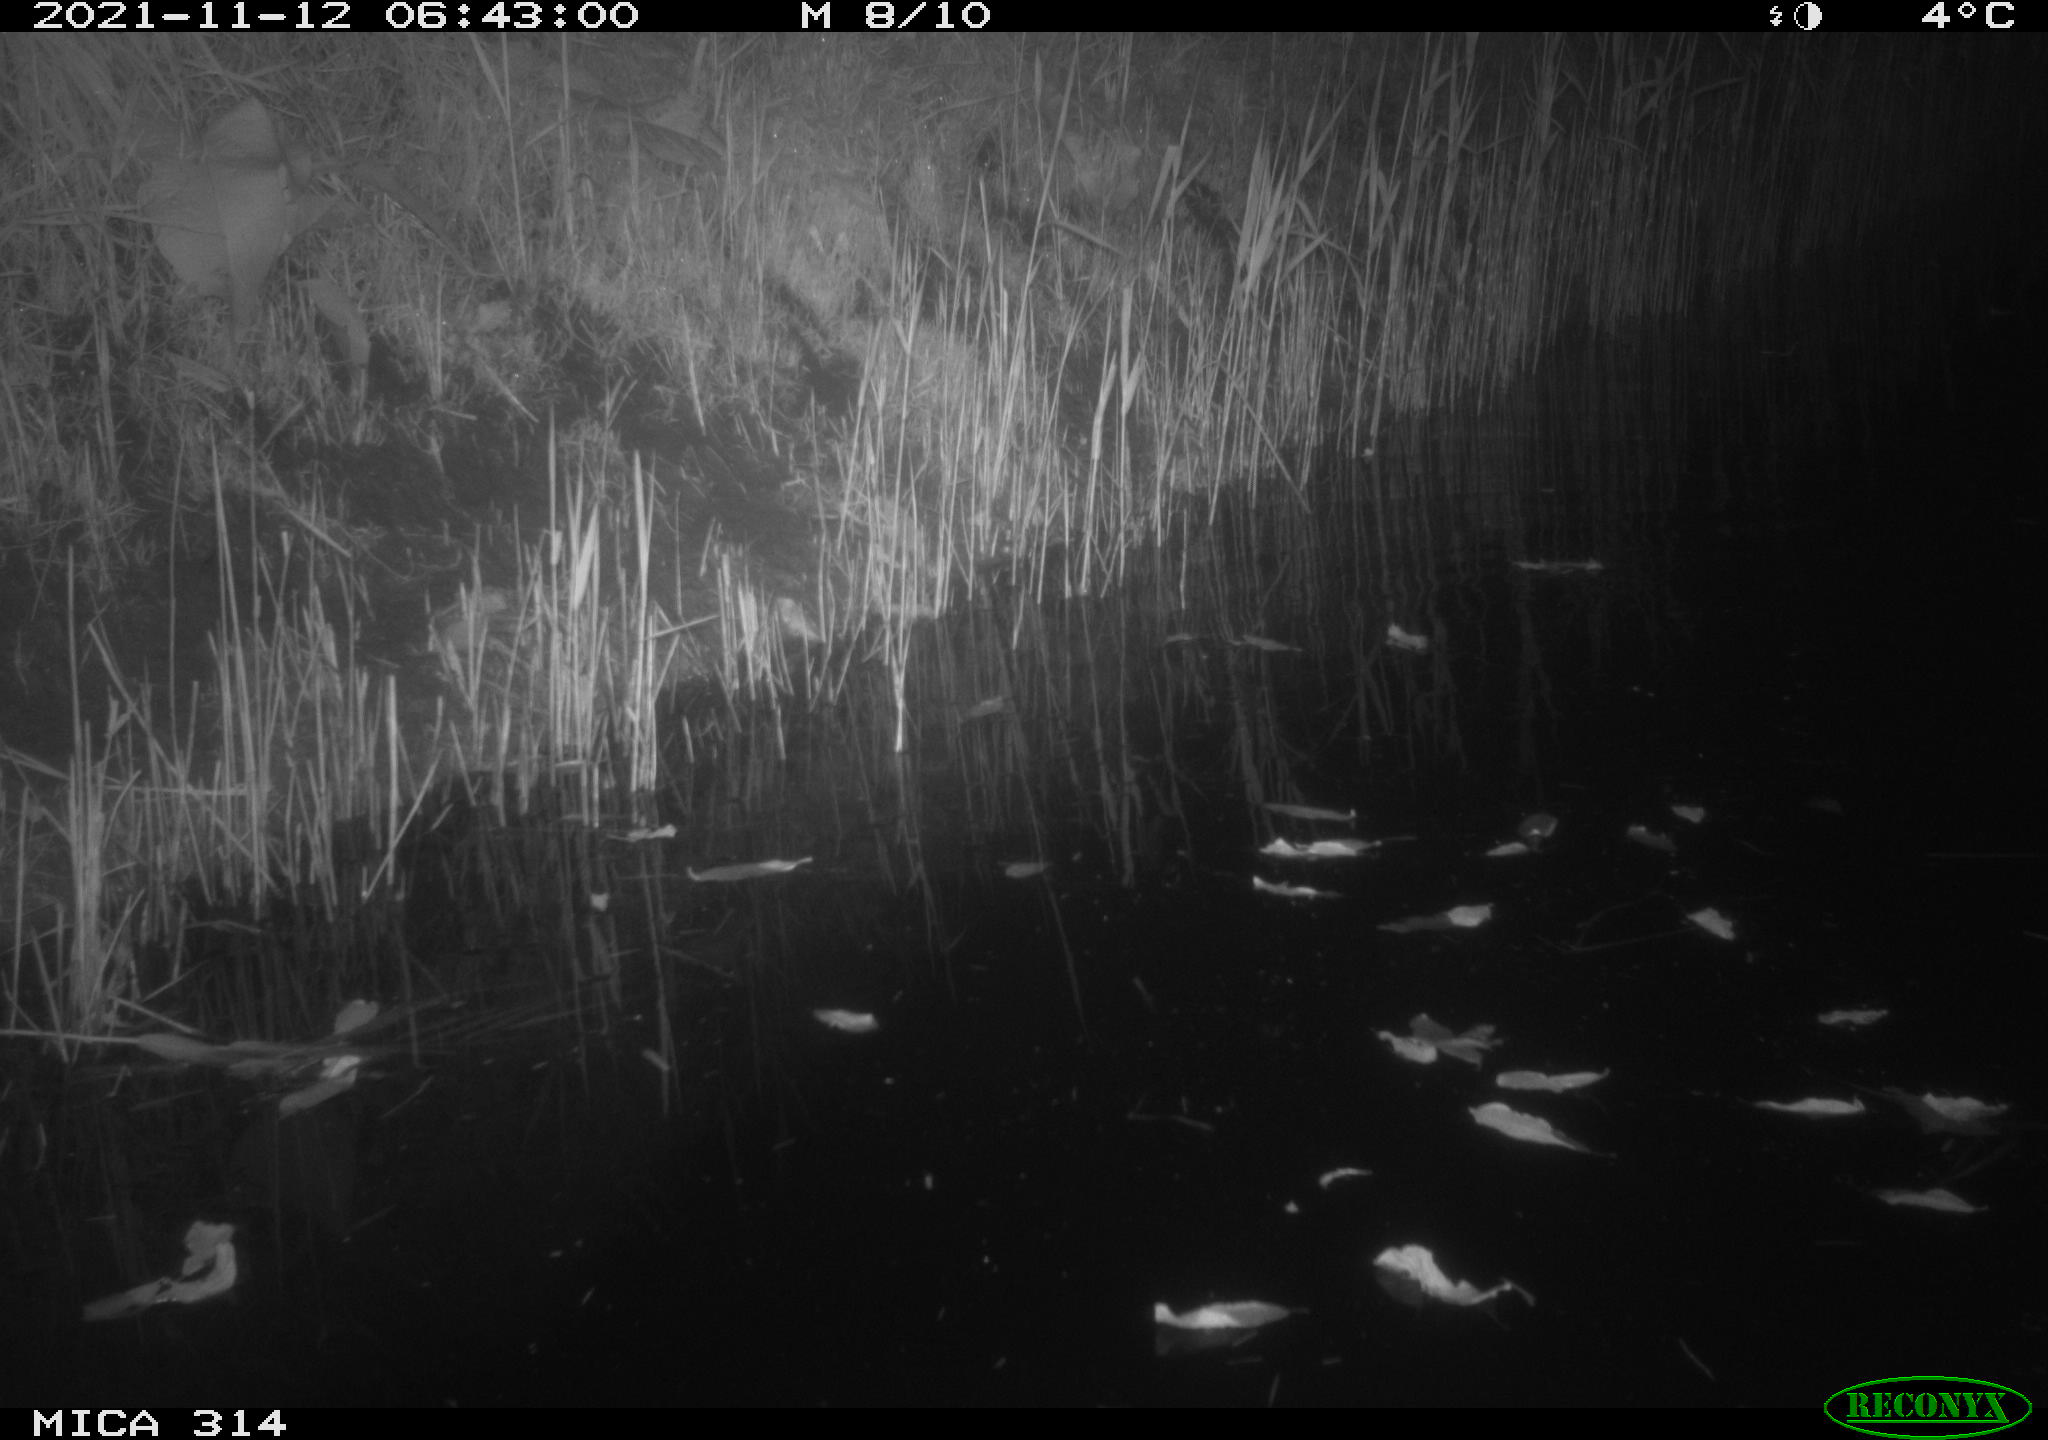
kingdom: Animalia
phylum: Chordata
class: Aves
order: Gruiformes
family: Rallidae
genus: Gallinula
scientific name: Gallinula chloropus
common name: Common moorhen
